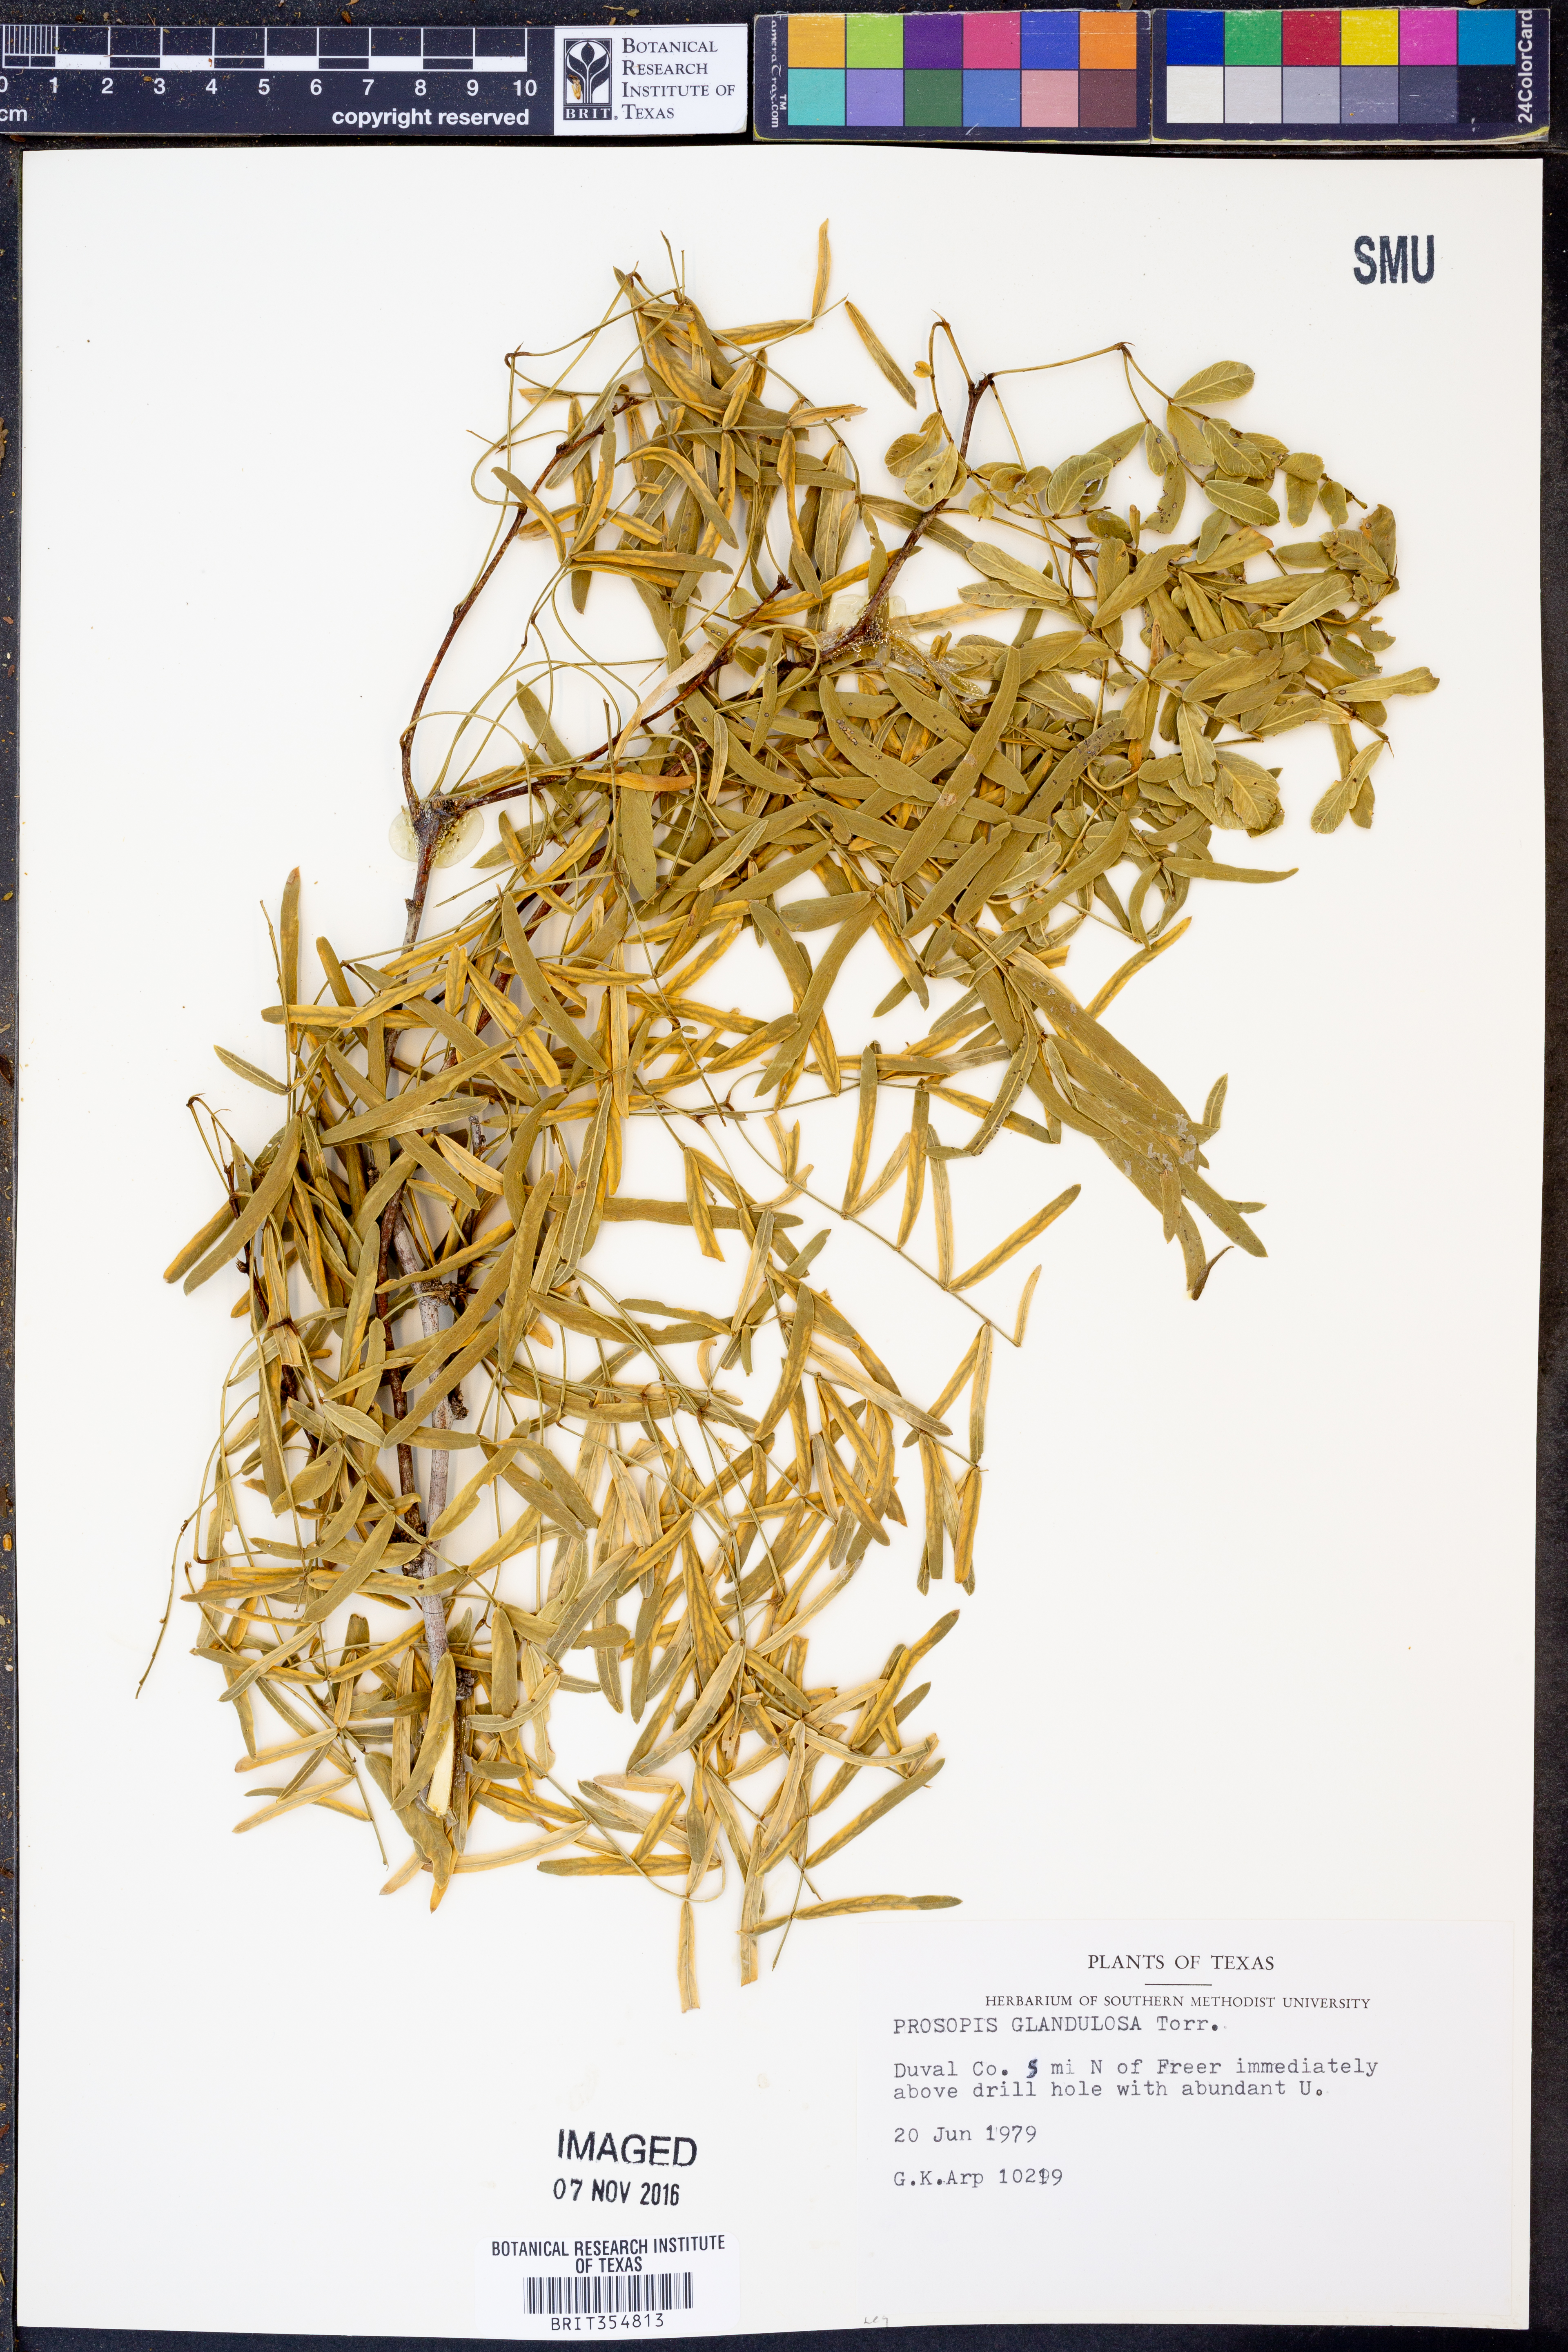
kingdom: Plantae
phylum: Tracheophyta
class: Magnoliopsida
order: Fabales
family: Fabaceae
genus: Prosopis
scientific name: Prosopis glandulosa
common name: Honey mesquite
